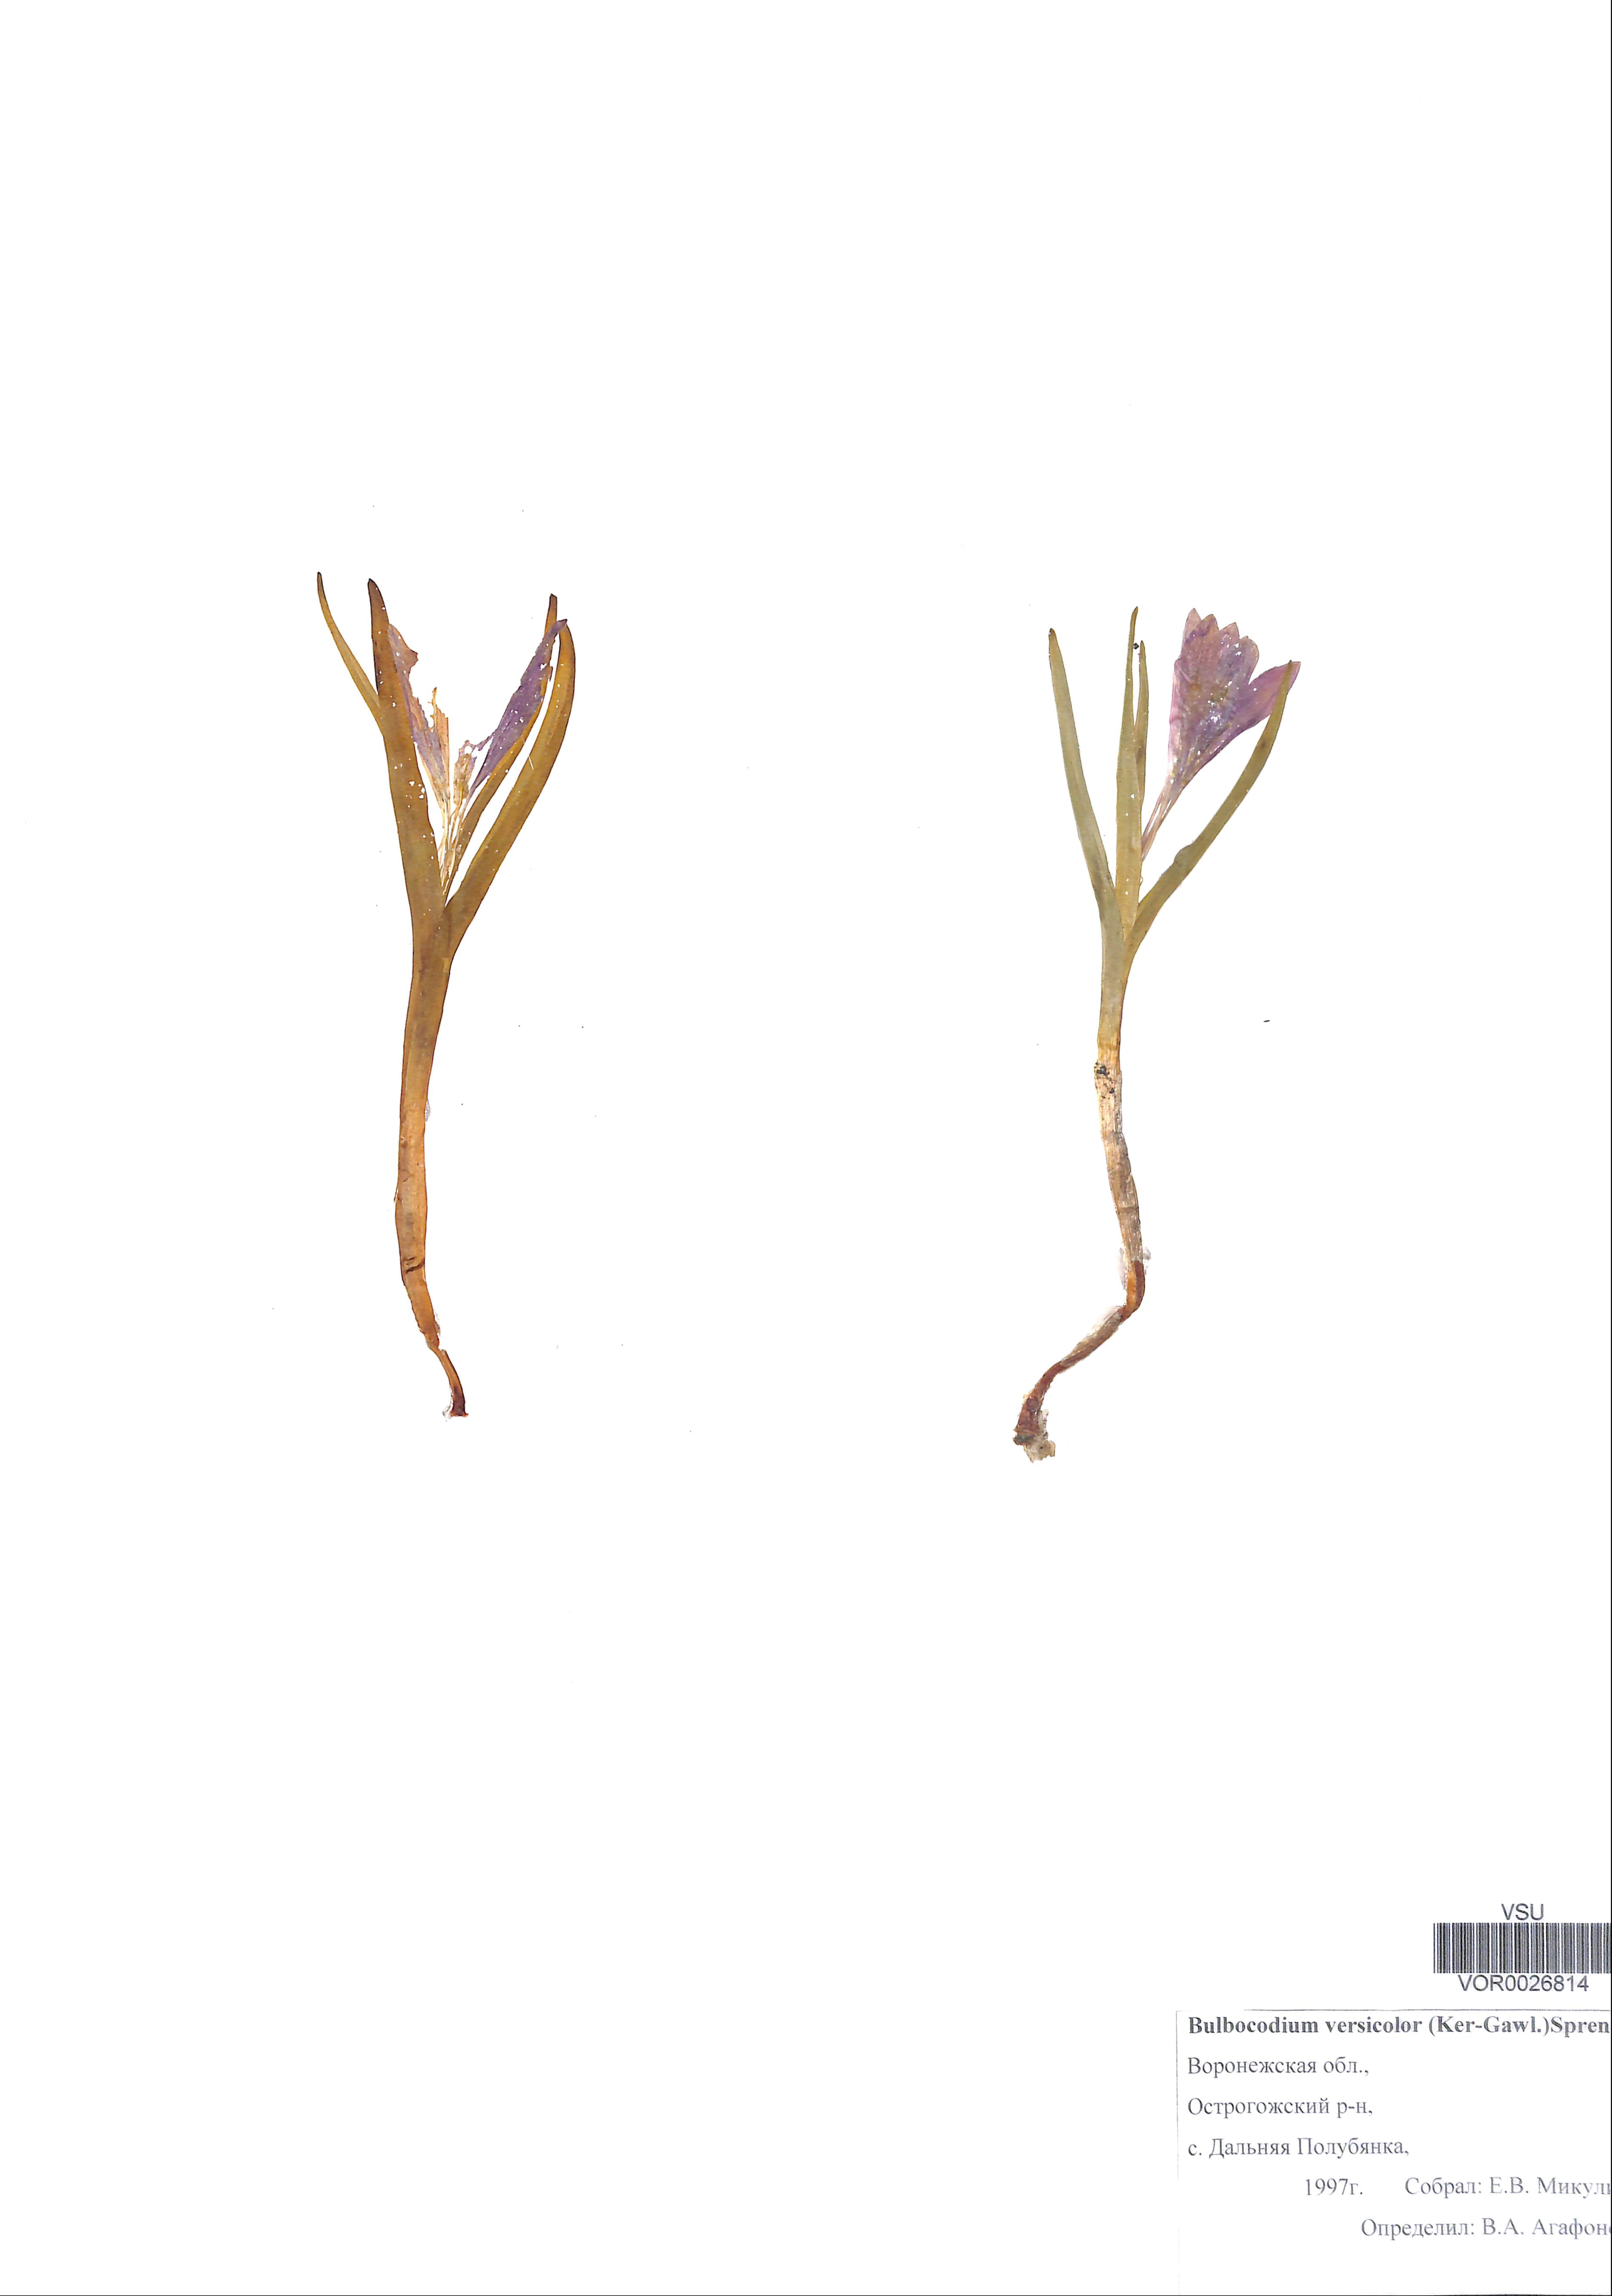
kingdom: Plantae
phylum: Tracheophyta
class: Liliopsida
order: Liliales
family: Colchicaceae
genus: Colchicum
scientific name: Colchicum bulbocodium
